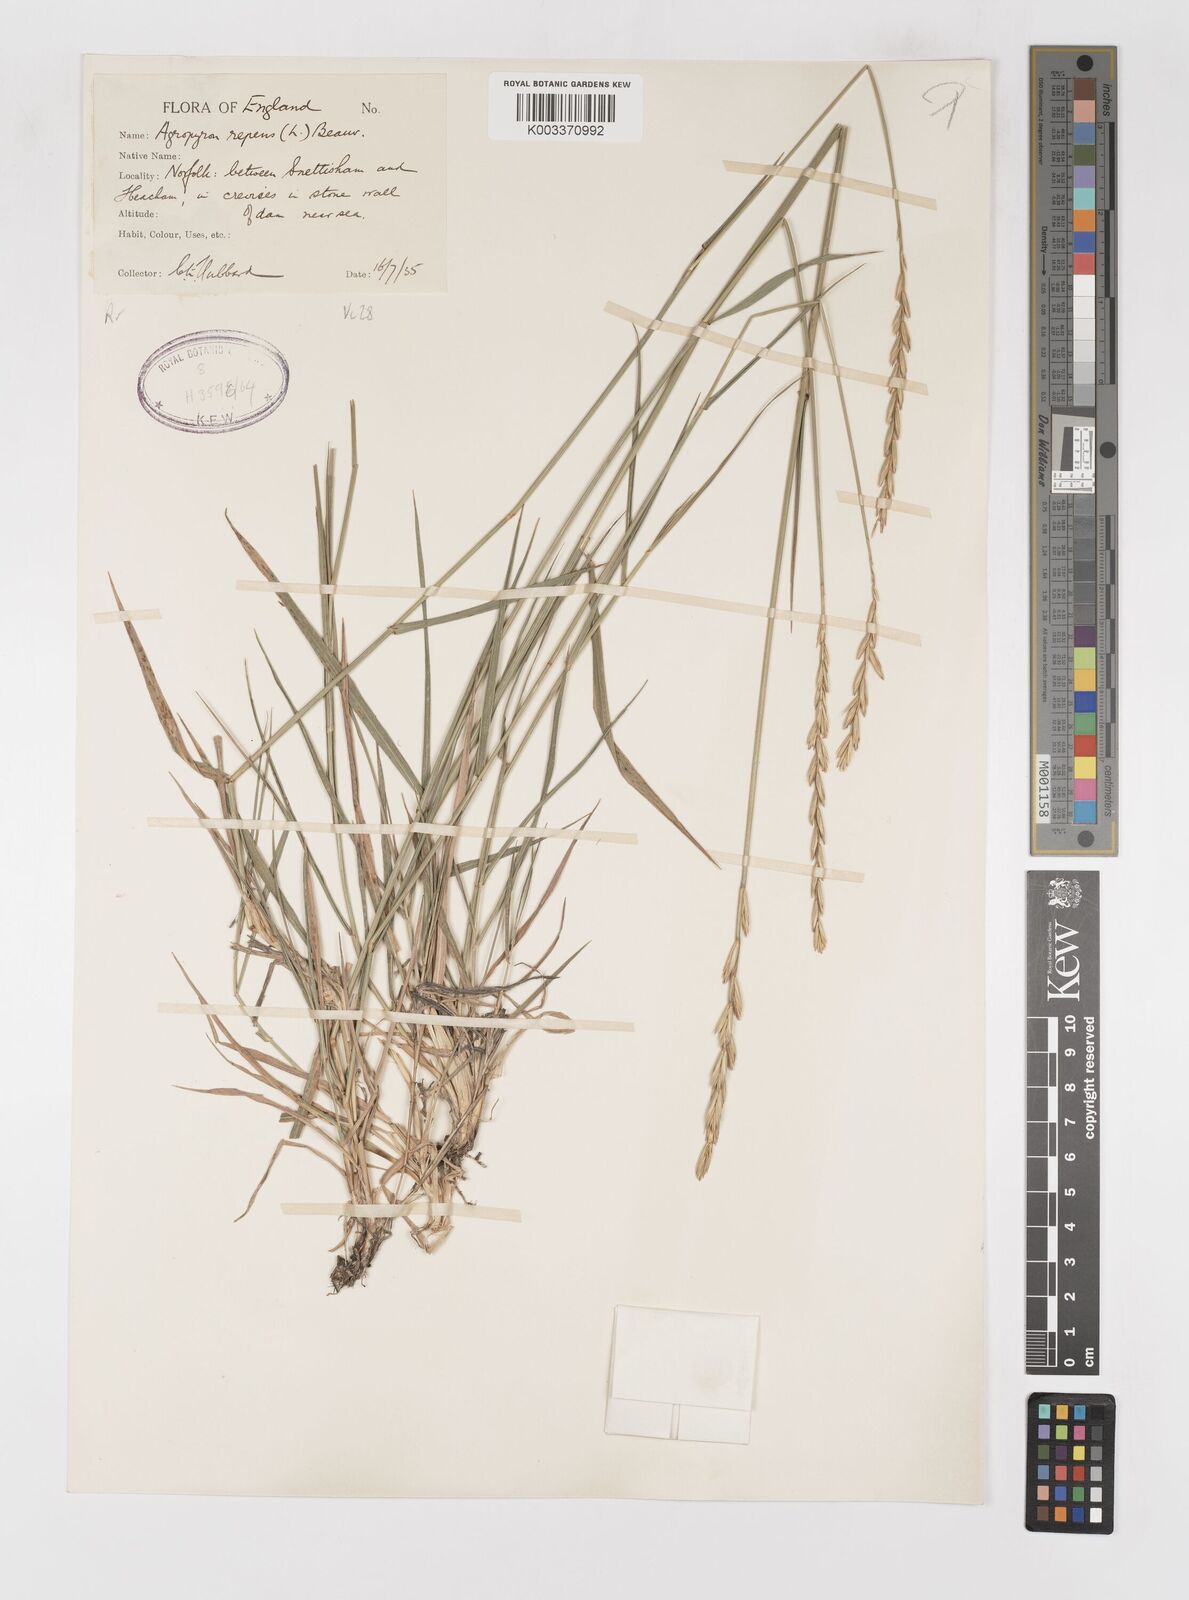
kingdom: Plantae
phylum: Tracheophyta
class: Liliopsida
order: Poales
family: Poaceae
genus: Elymus
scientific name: Elymus repens
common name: Quackgrass
